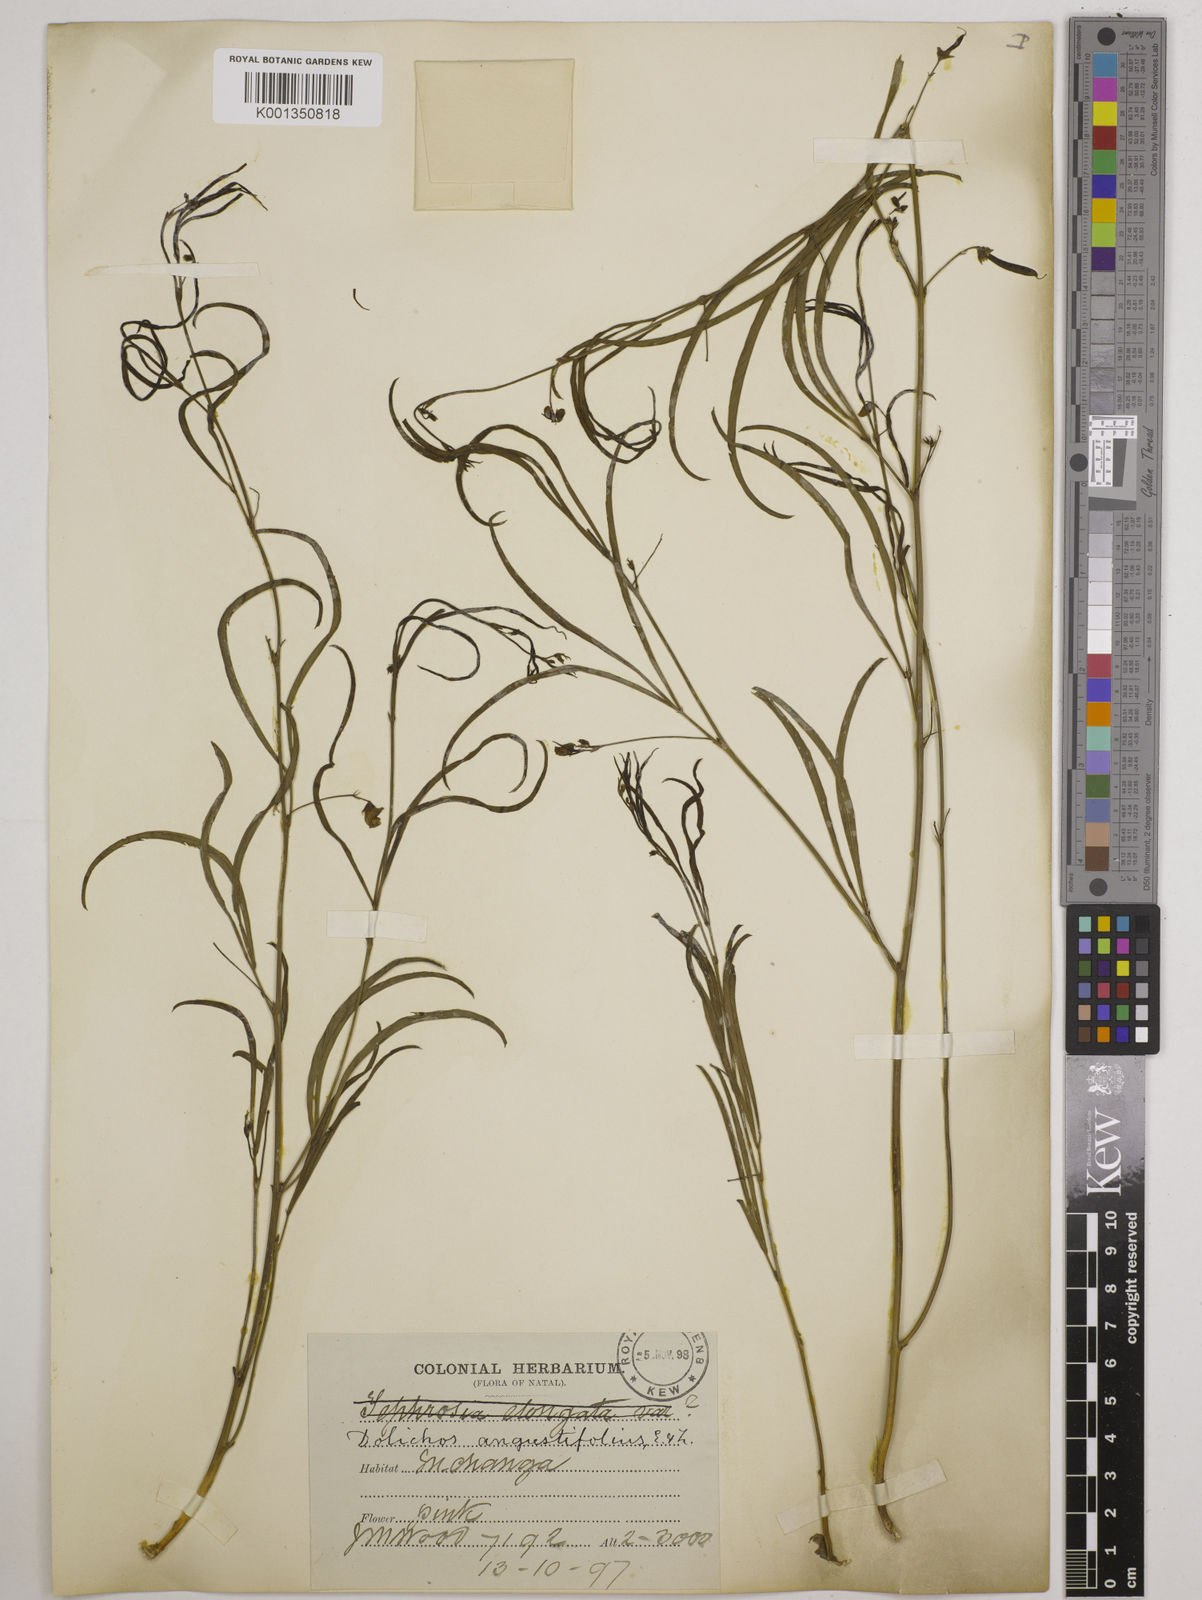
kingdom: Plantae
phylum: Tracheophyta
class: Magnoliopsida
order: Fabales
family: Fabaceae
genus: Dolichos
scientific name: Dolichos
